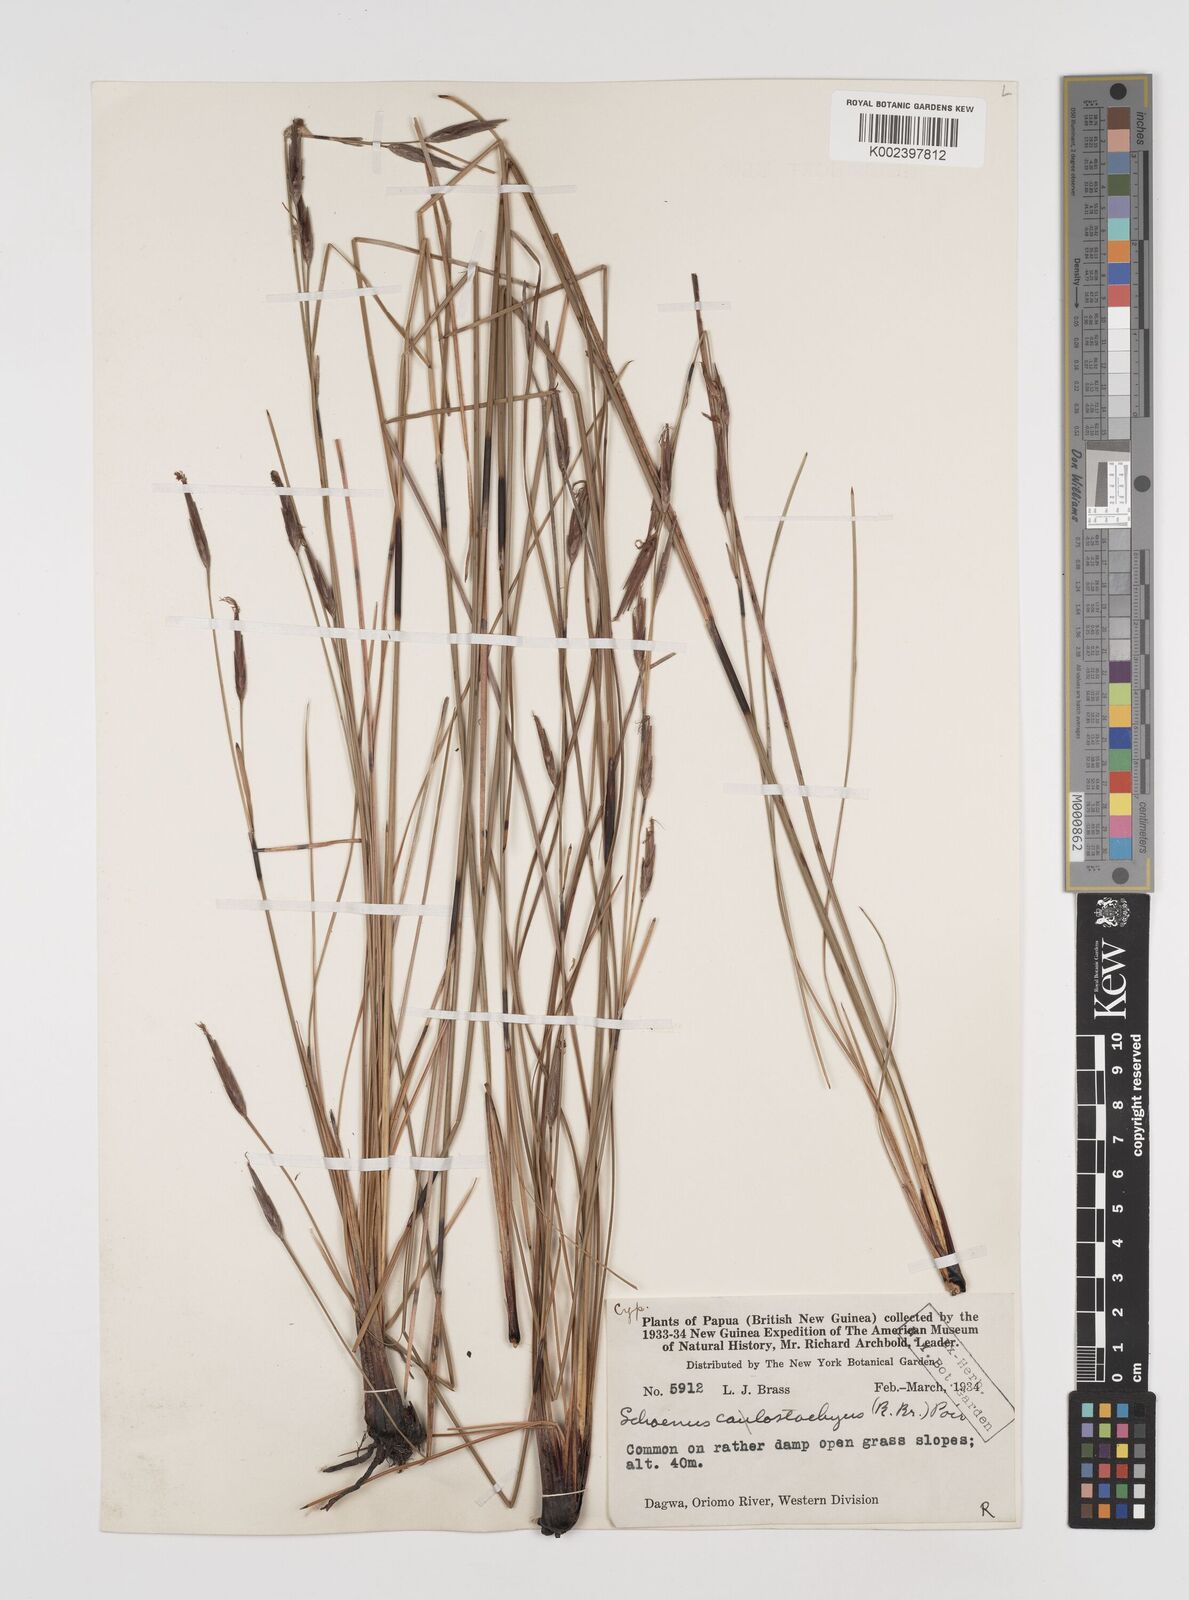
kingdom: Plantae
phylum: Tracheophyta
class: Liliopsida
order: Poales
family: Cyperaceae
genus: Schoenus
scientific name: Schoenus calostachyus
